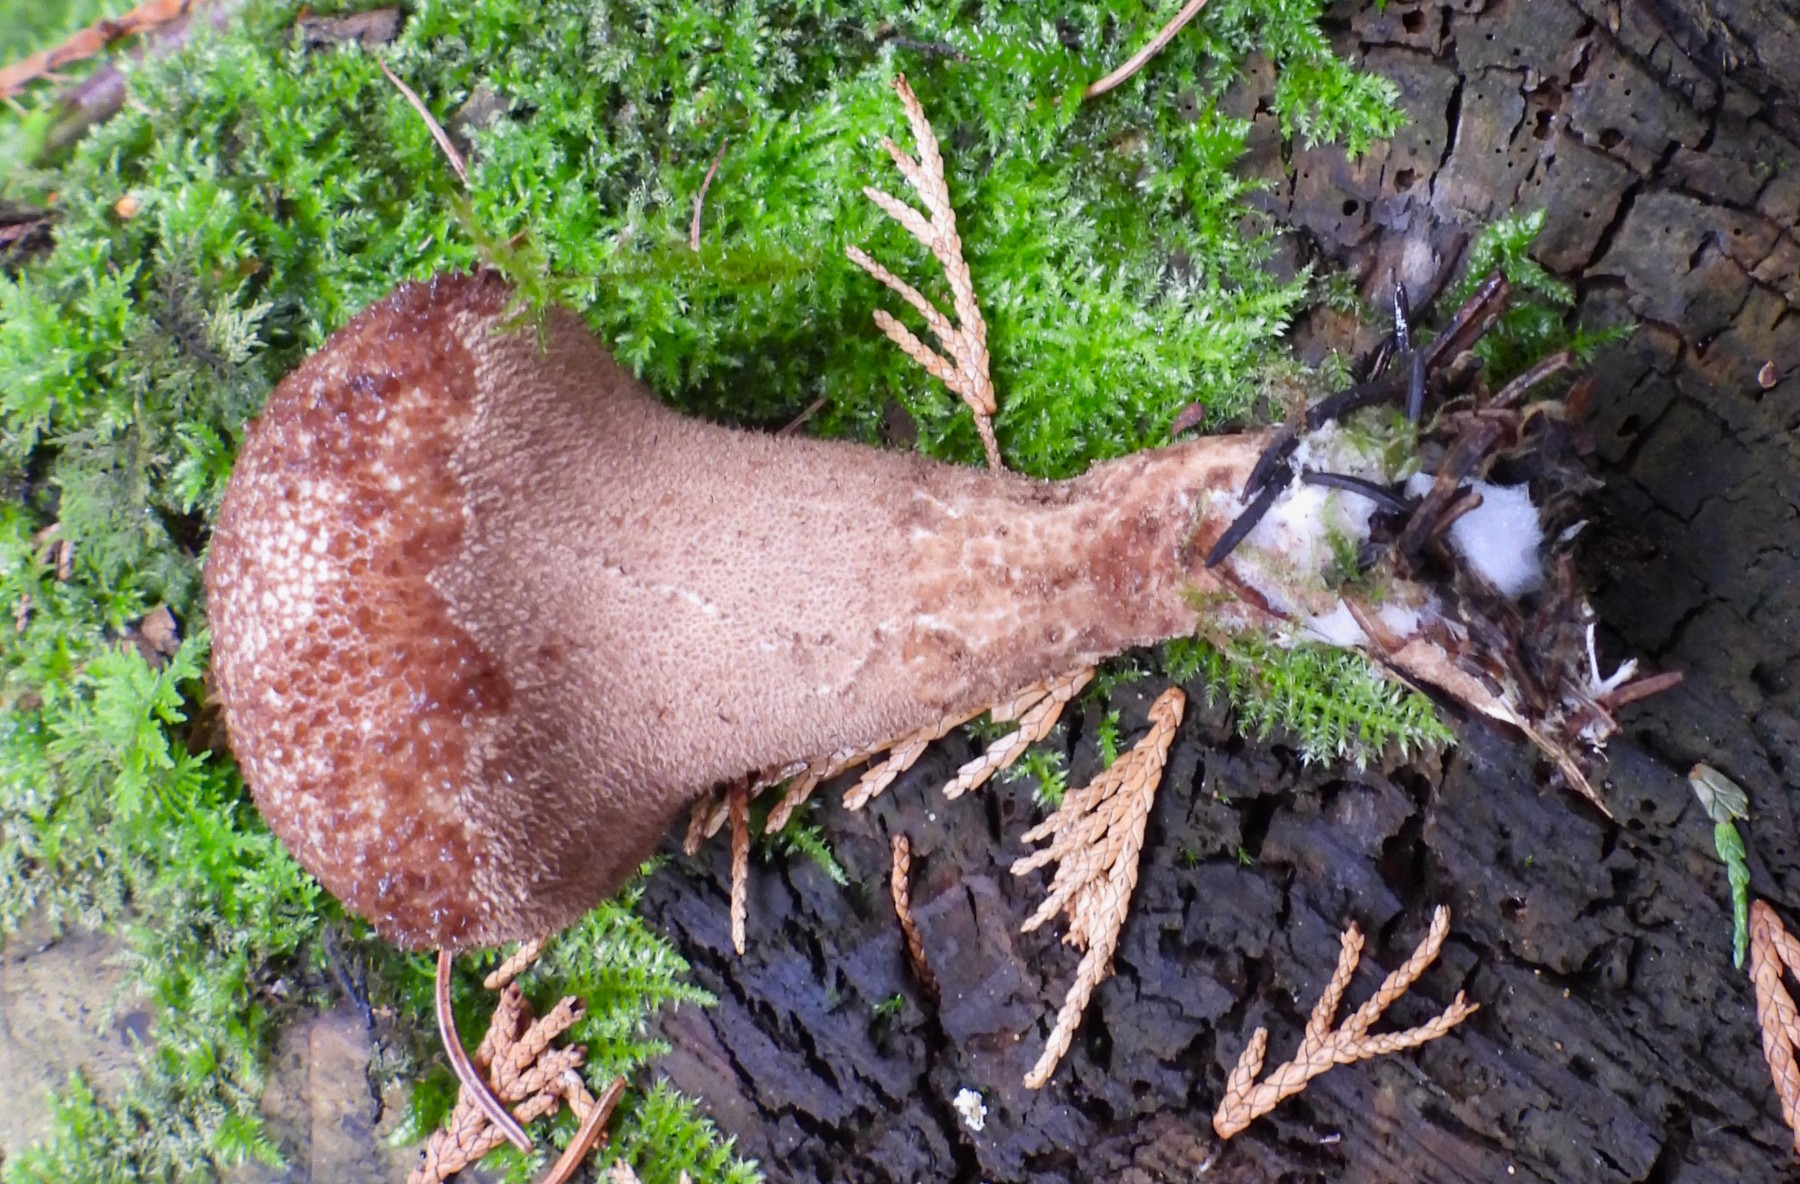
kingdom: Fungi
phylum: Basidiomycota
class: Agaricomycetes
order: Agaricales
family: Lycoperdaceae
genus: Lycoperdon
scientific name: Lycoperdon nigrescens
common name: sortagtig støvbold
